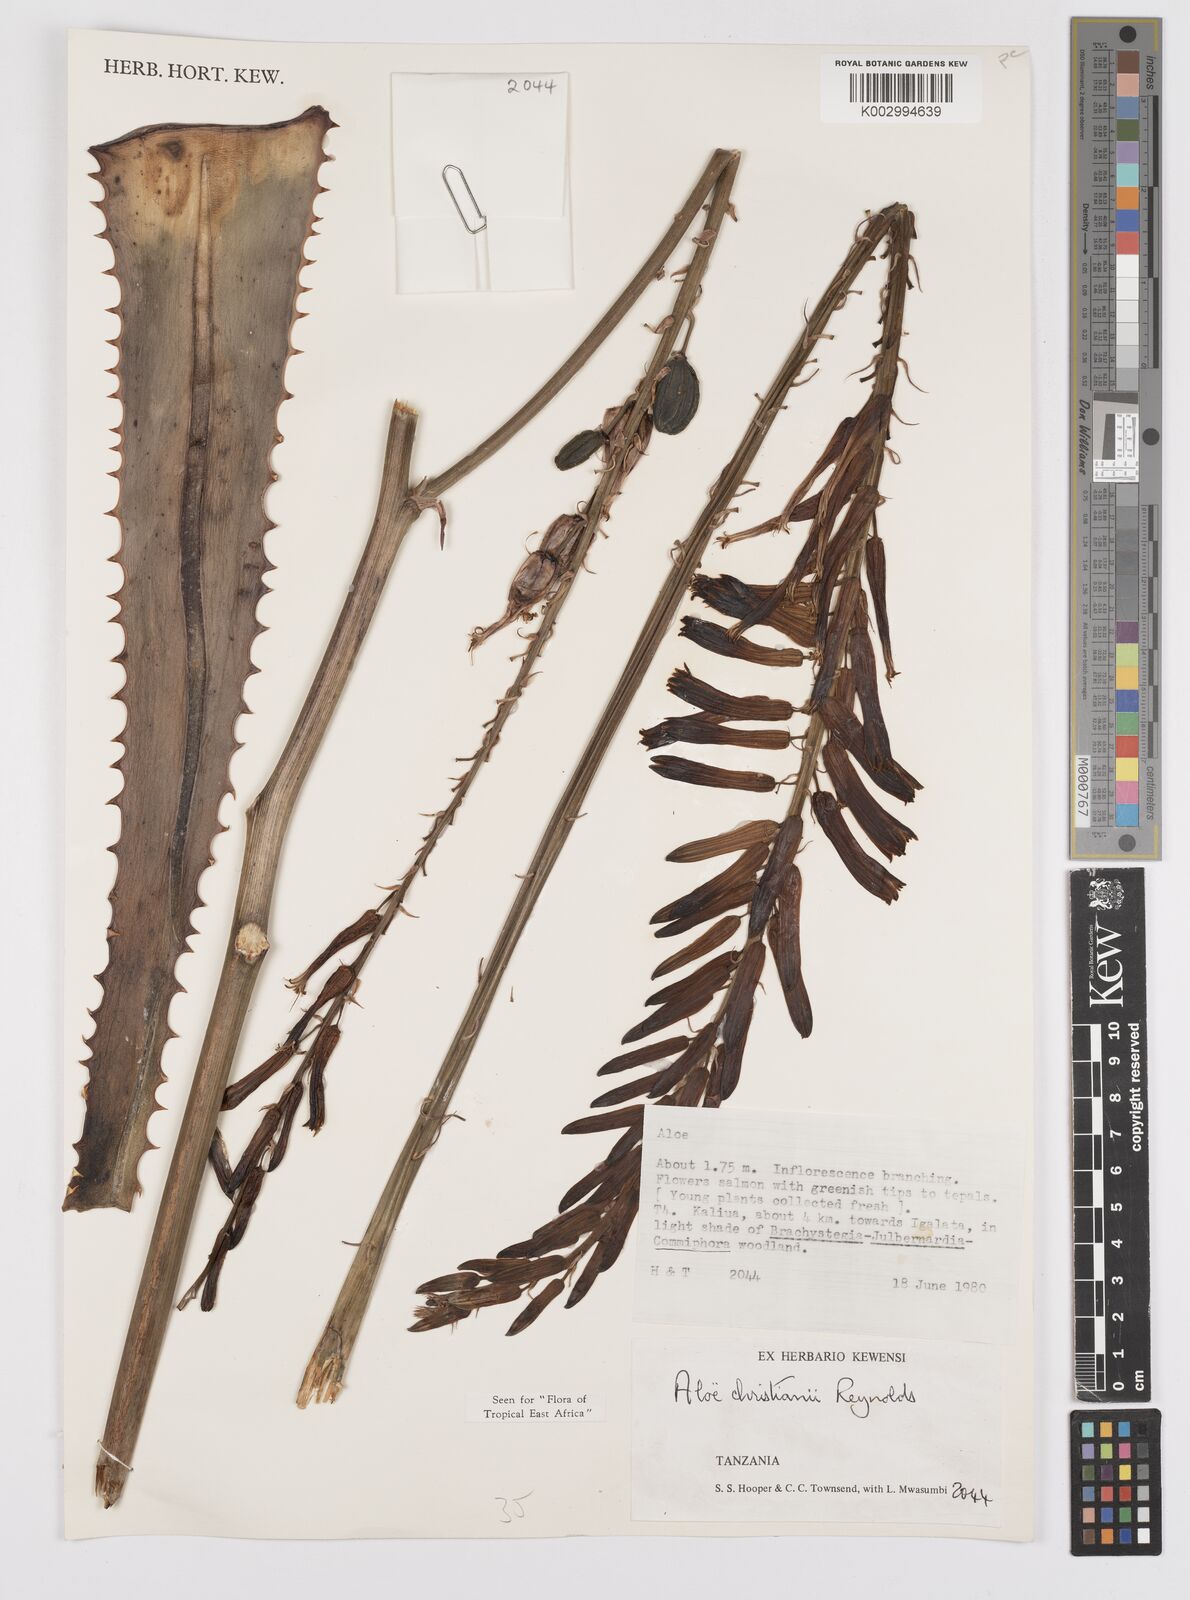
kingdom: Plantae
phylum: Tracheophyta
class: Liliopsida
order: Asparagales
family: Asphodelaceae
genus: Aloe
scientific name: Aloe christianii
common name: Basil christian's aloe
